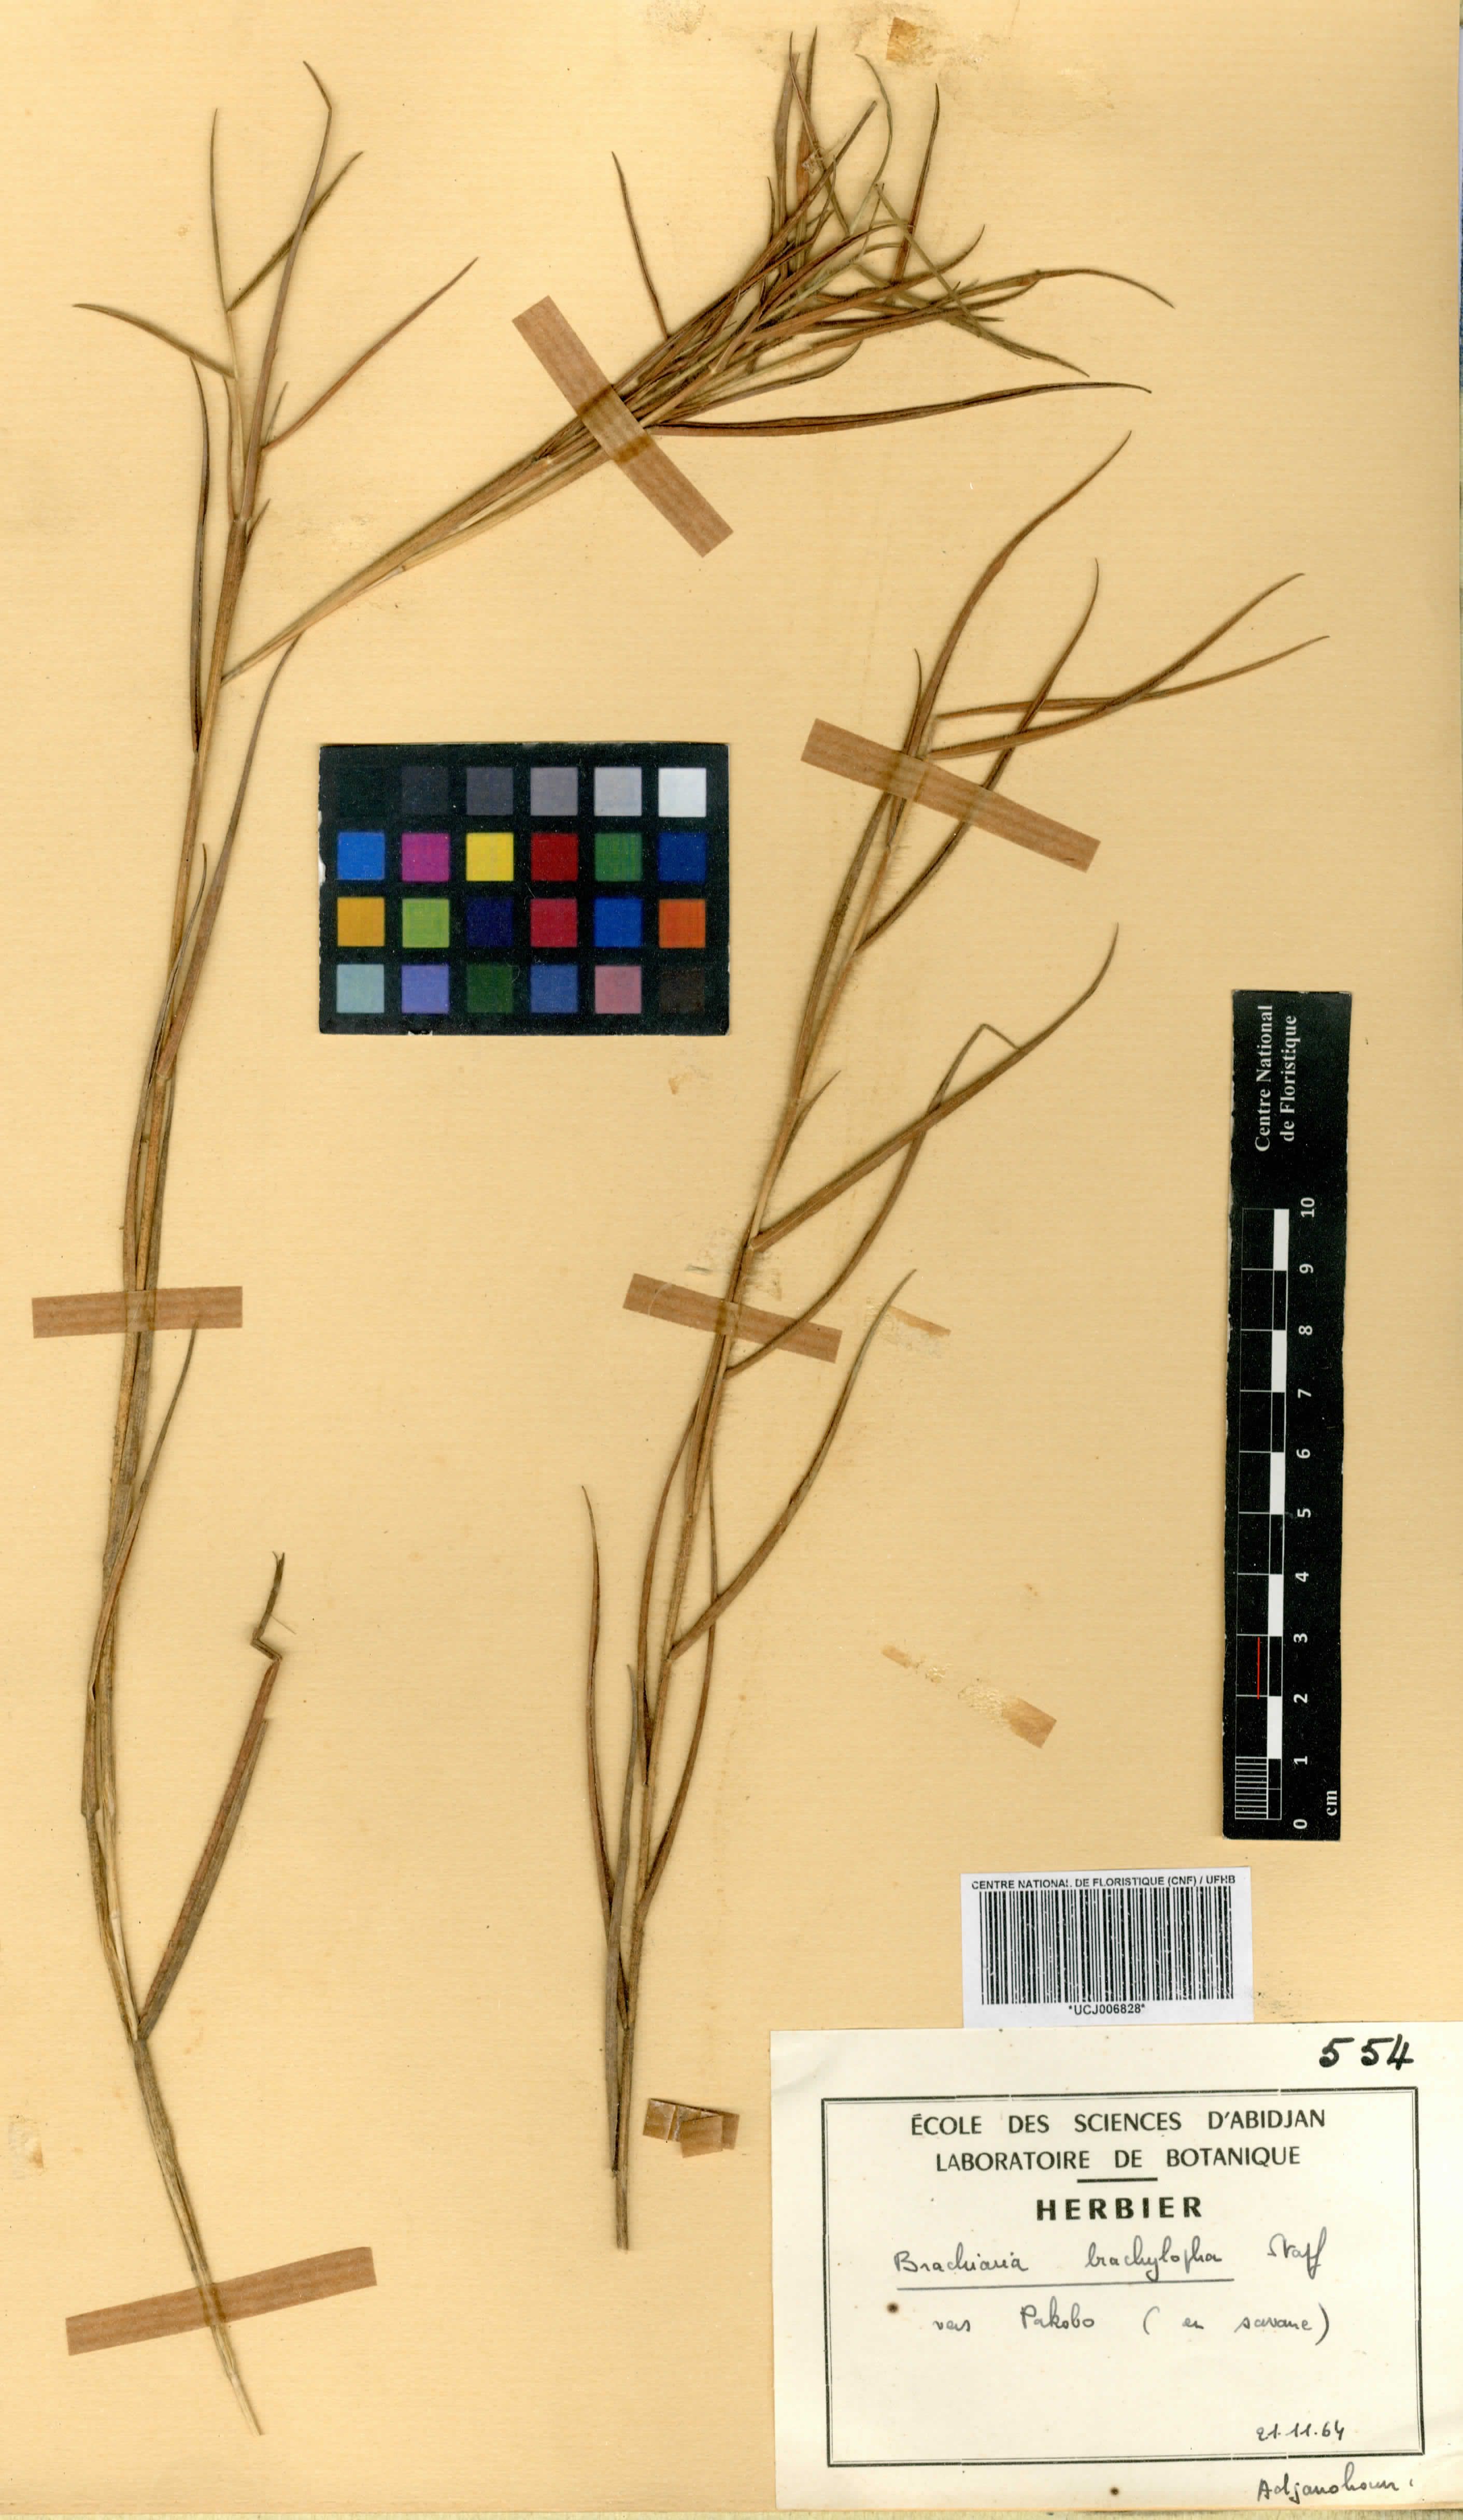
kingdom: Plantae
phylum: Tracheophyta
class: Liliopsida
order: Poales
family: Poaceae
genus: Urochloa
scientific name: Urochloa serrata
